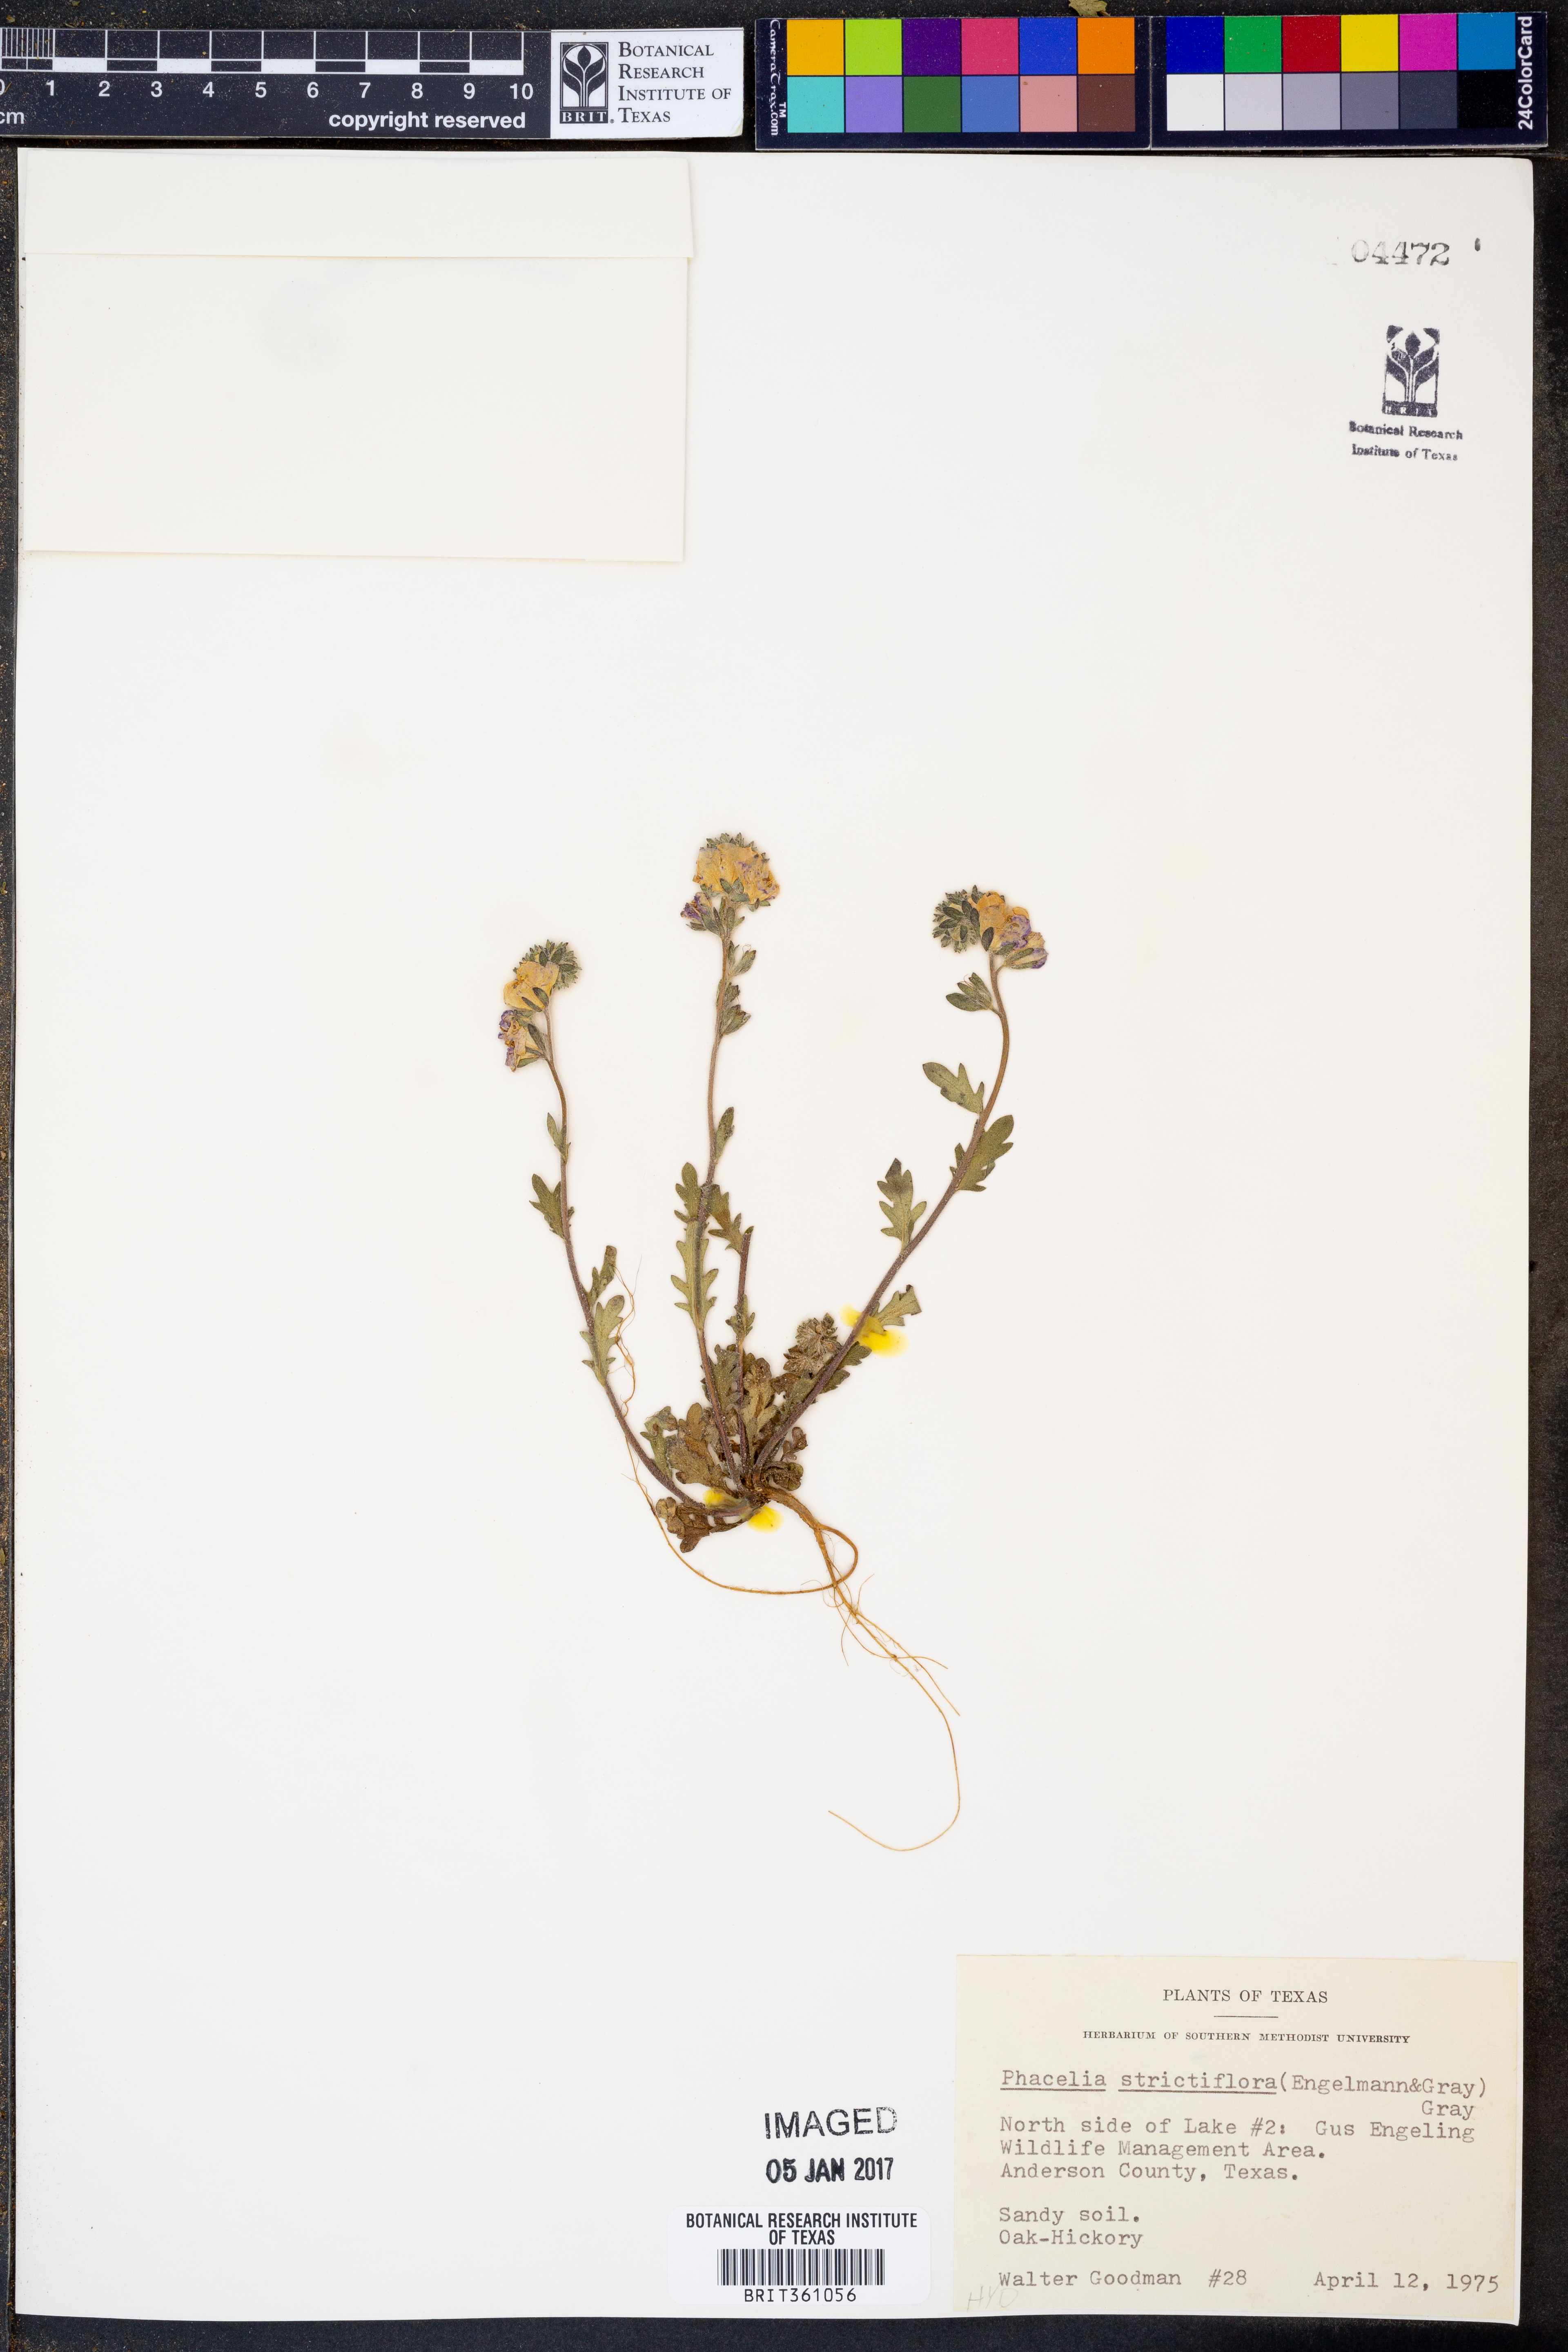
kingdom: Plantae
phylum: Tracheophyta
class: Magnoliopsida
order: Boraginales
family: Hydrophyllaceae
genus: Phacelia
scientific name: Phacelia strictiflora
